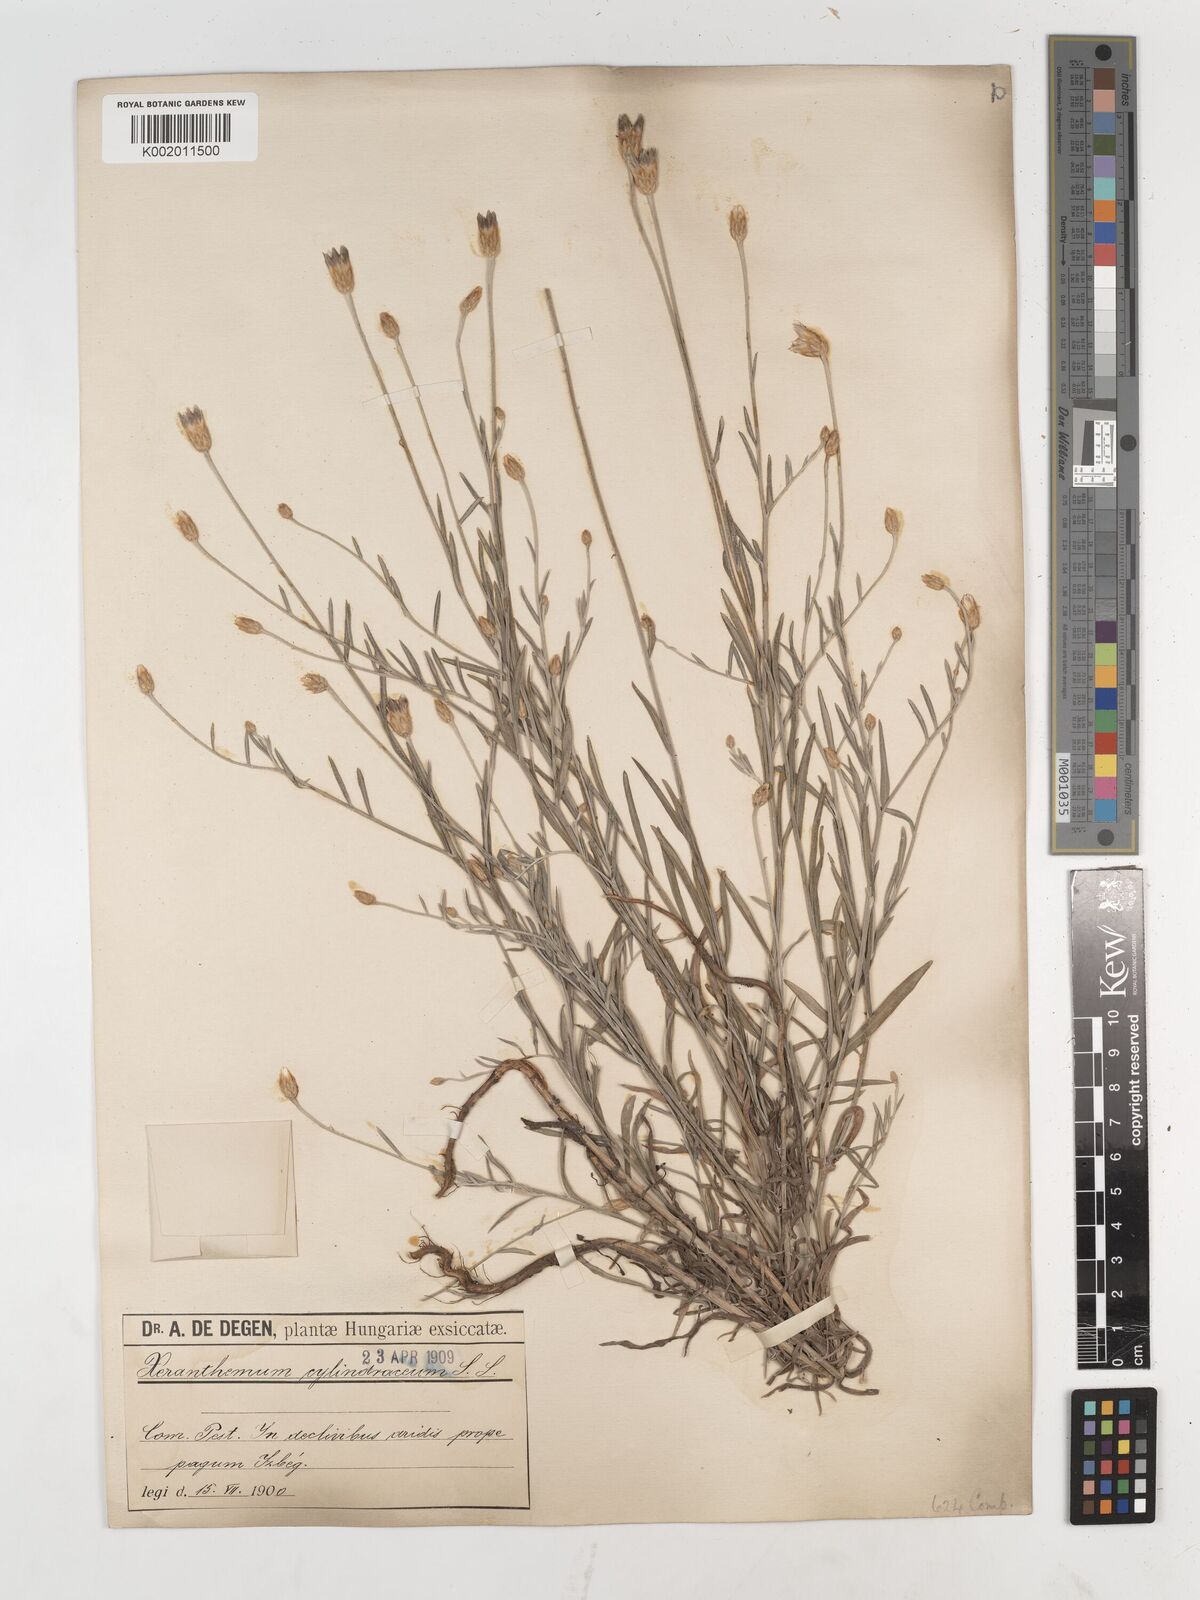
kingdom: Plantae
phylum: Tracheophyta
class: Magnoliopsida
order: Asterales
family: Asteraceae
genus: Xeranthemum
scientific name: Xeranthemum cylindraceum
